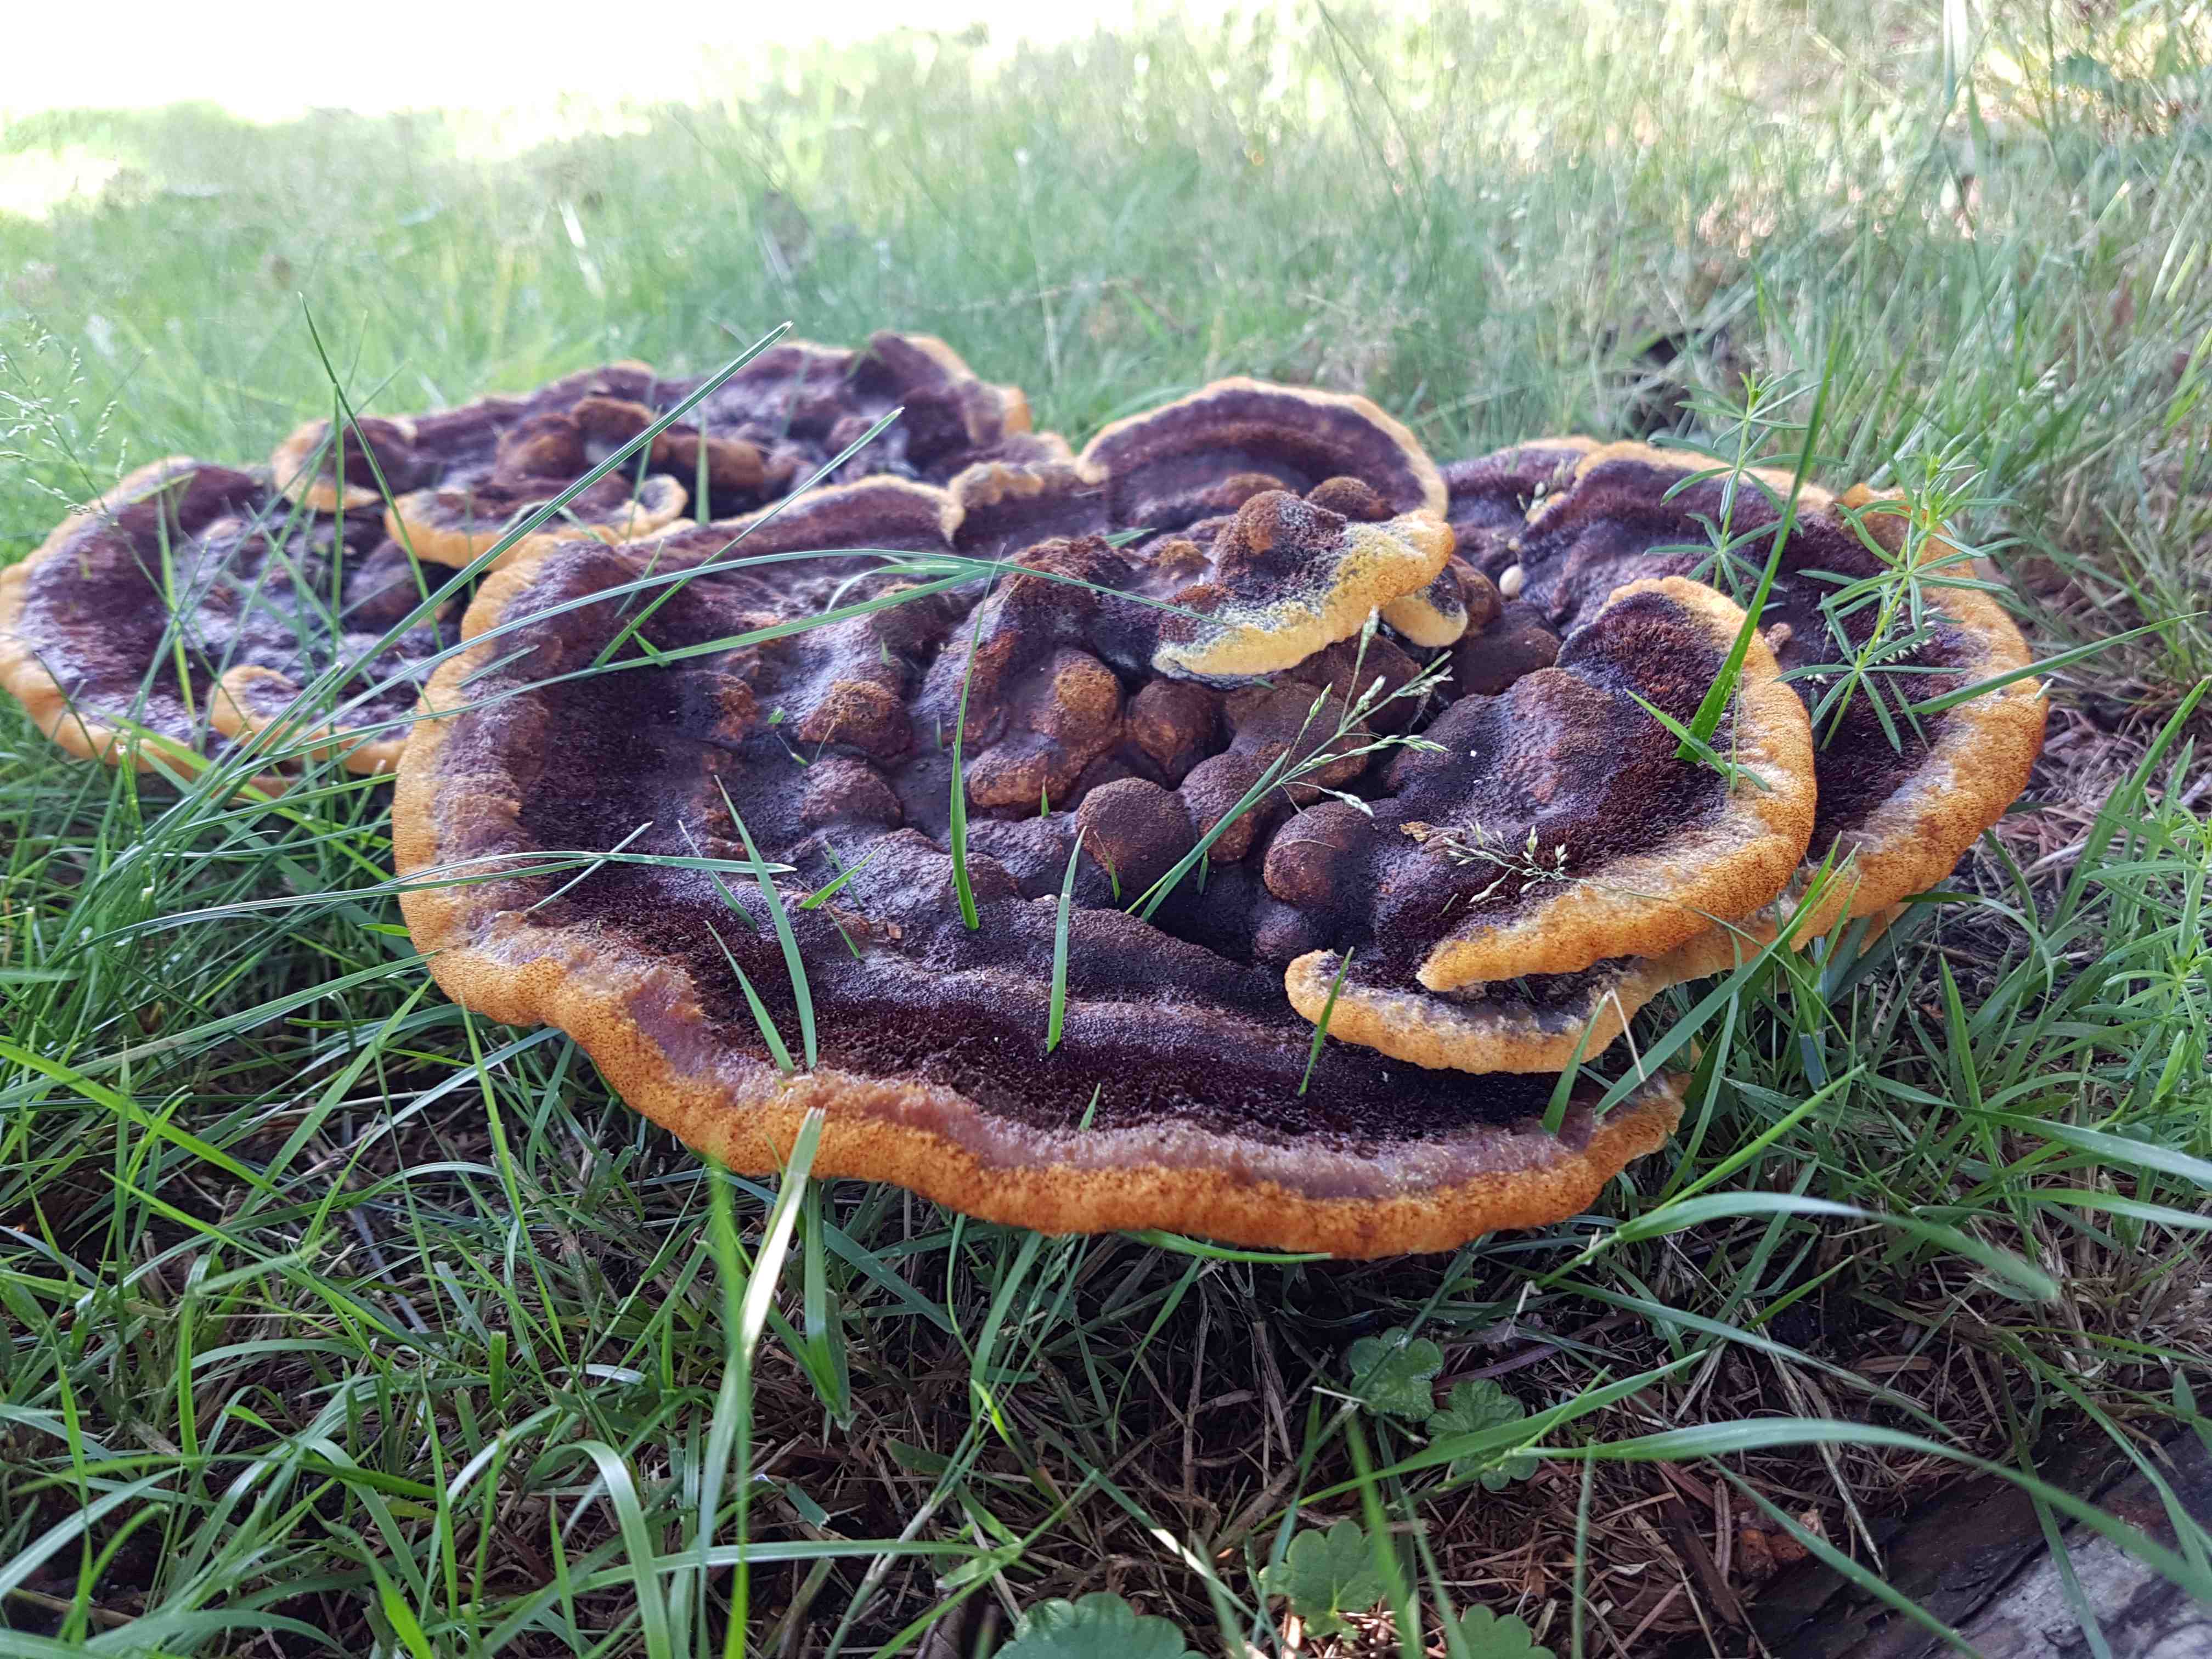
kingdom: Fungi
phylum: Basidiomycota
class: Agaricomycetes
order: Polyporales
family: Laetiporaceae
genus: Phaeolus
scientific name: Phaeolus schweinitzii
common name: brunporesvamp
